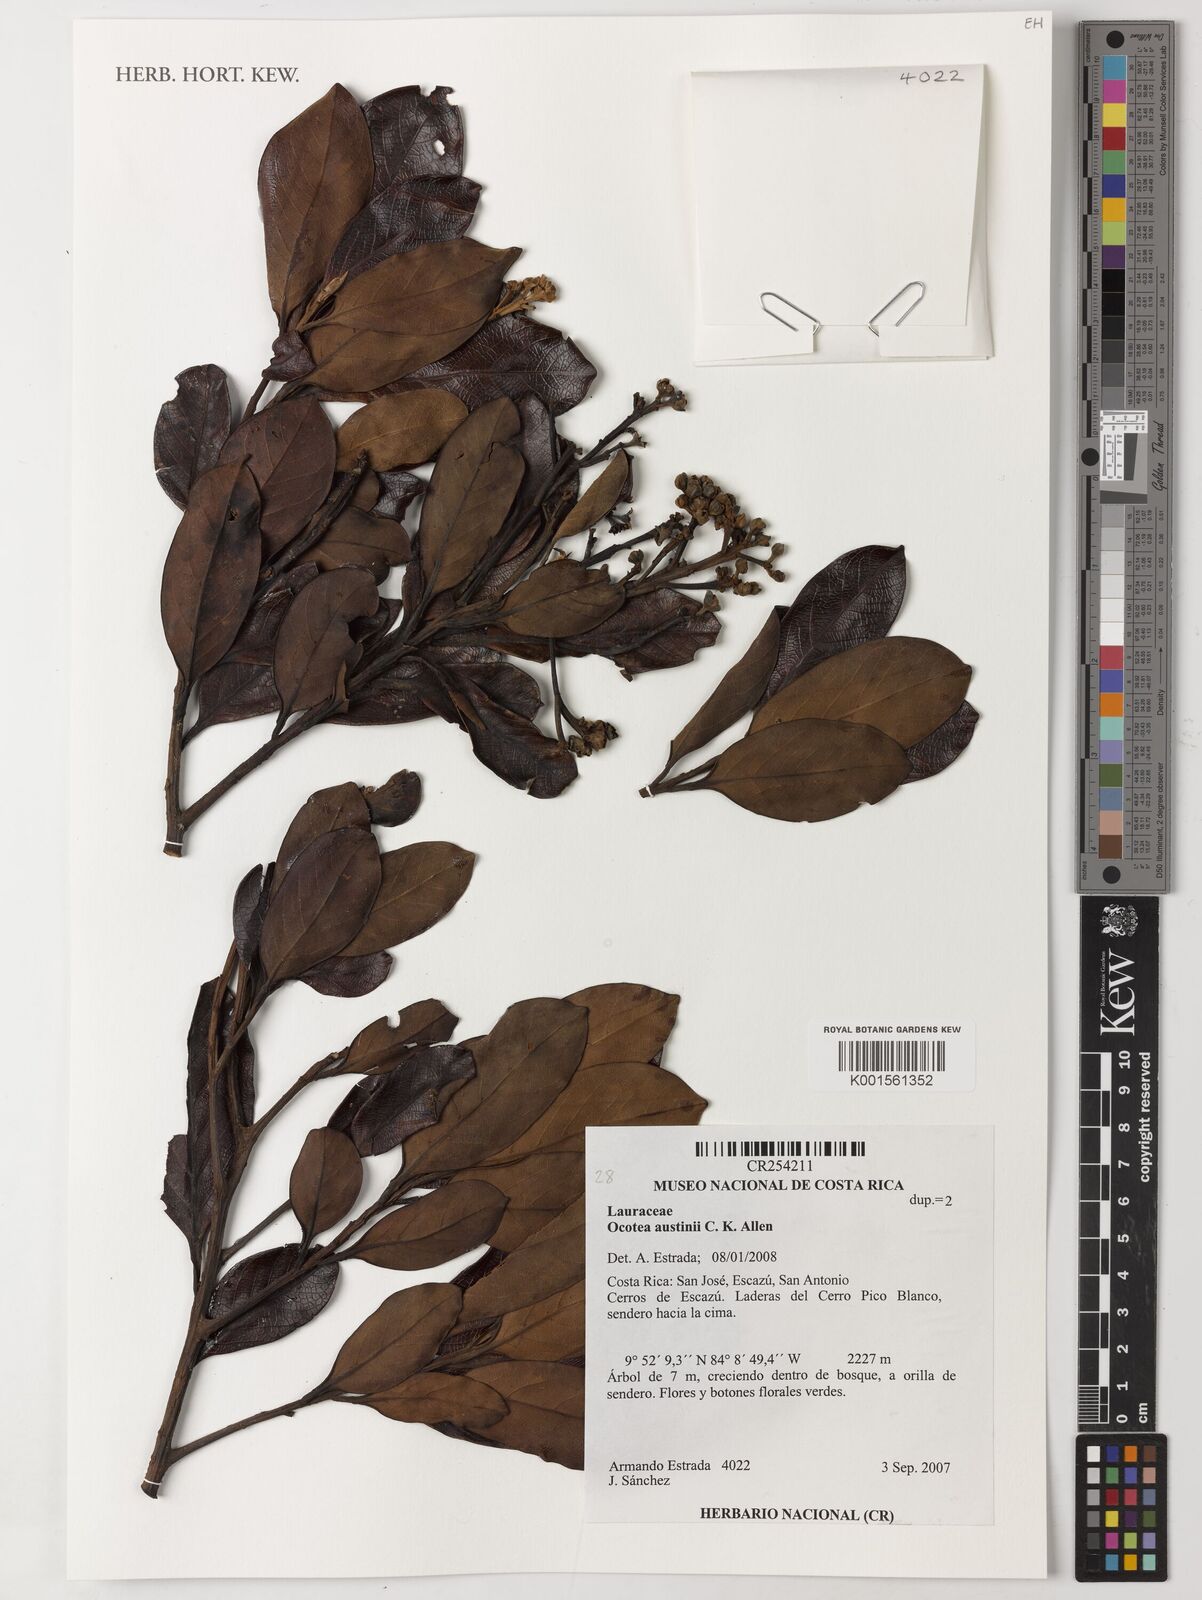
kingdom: Plantae
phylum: Tracheophyta
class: Magnoliopsida
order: Laurales
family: Lauraceae
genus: Ocotea
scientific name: Ocotea austinii
